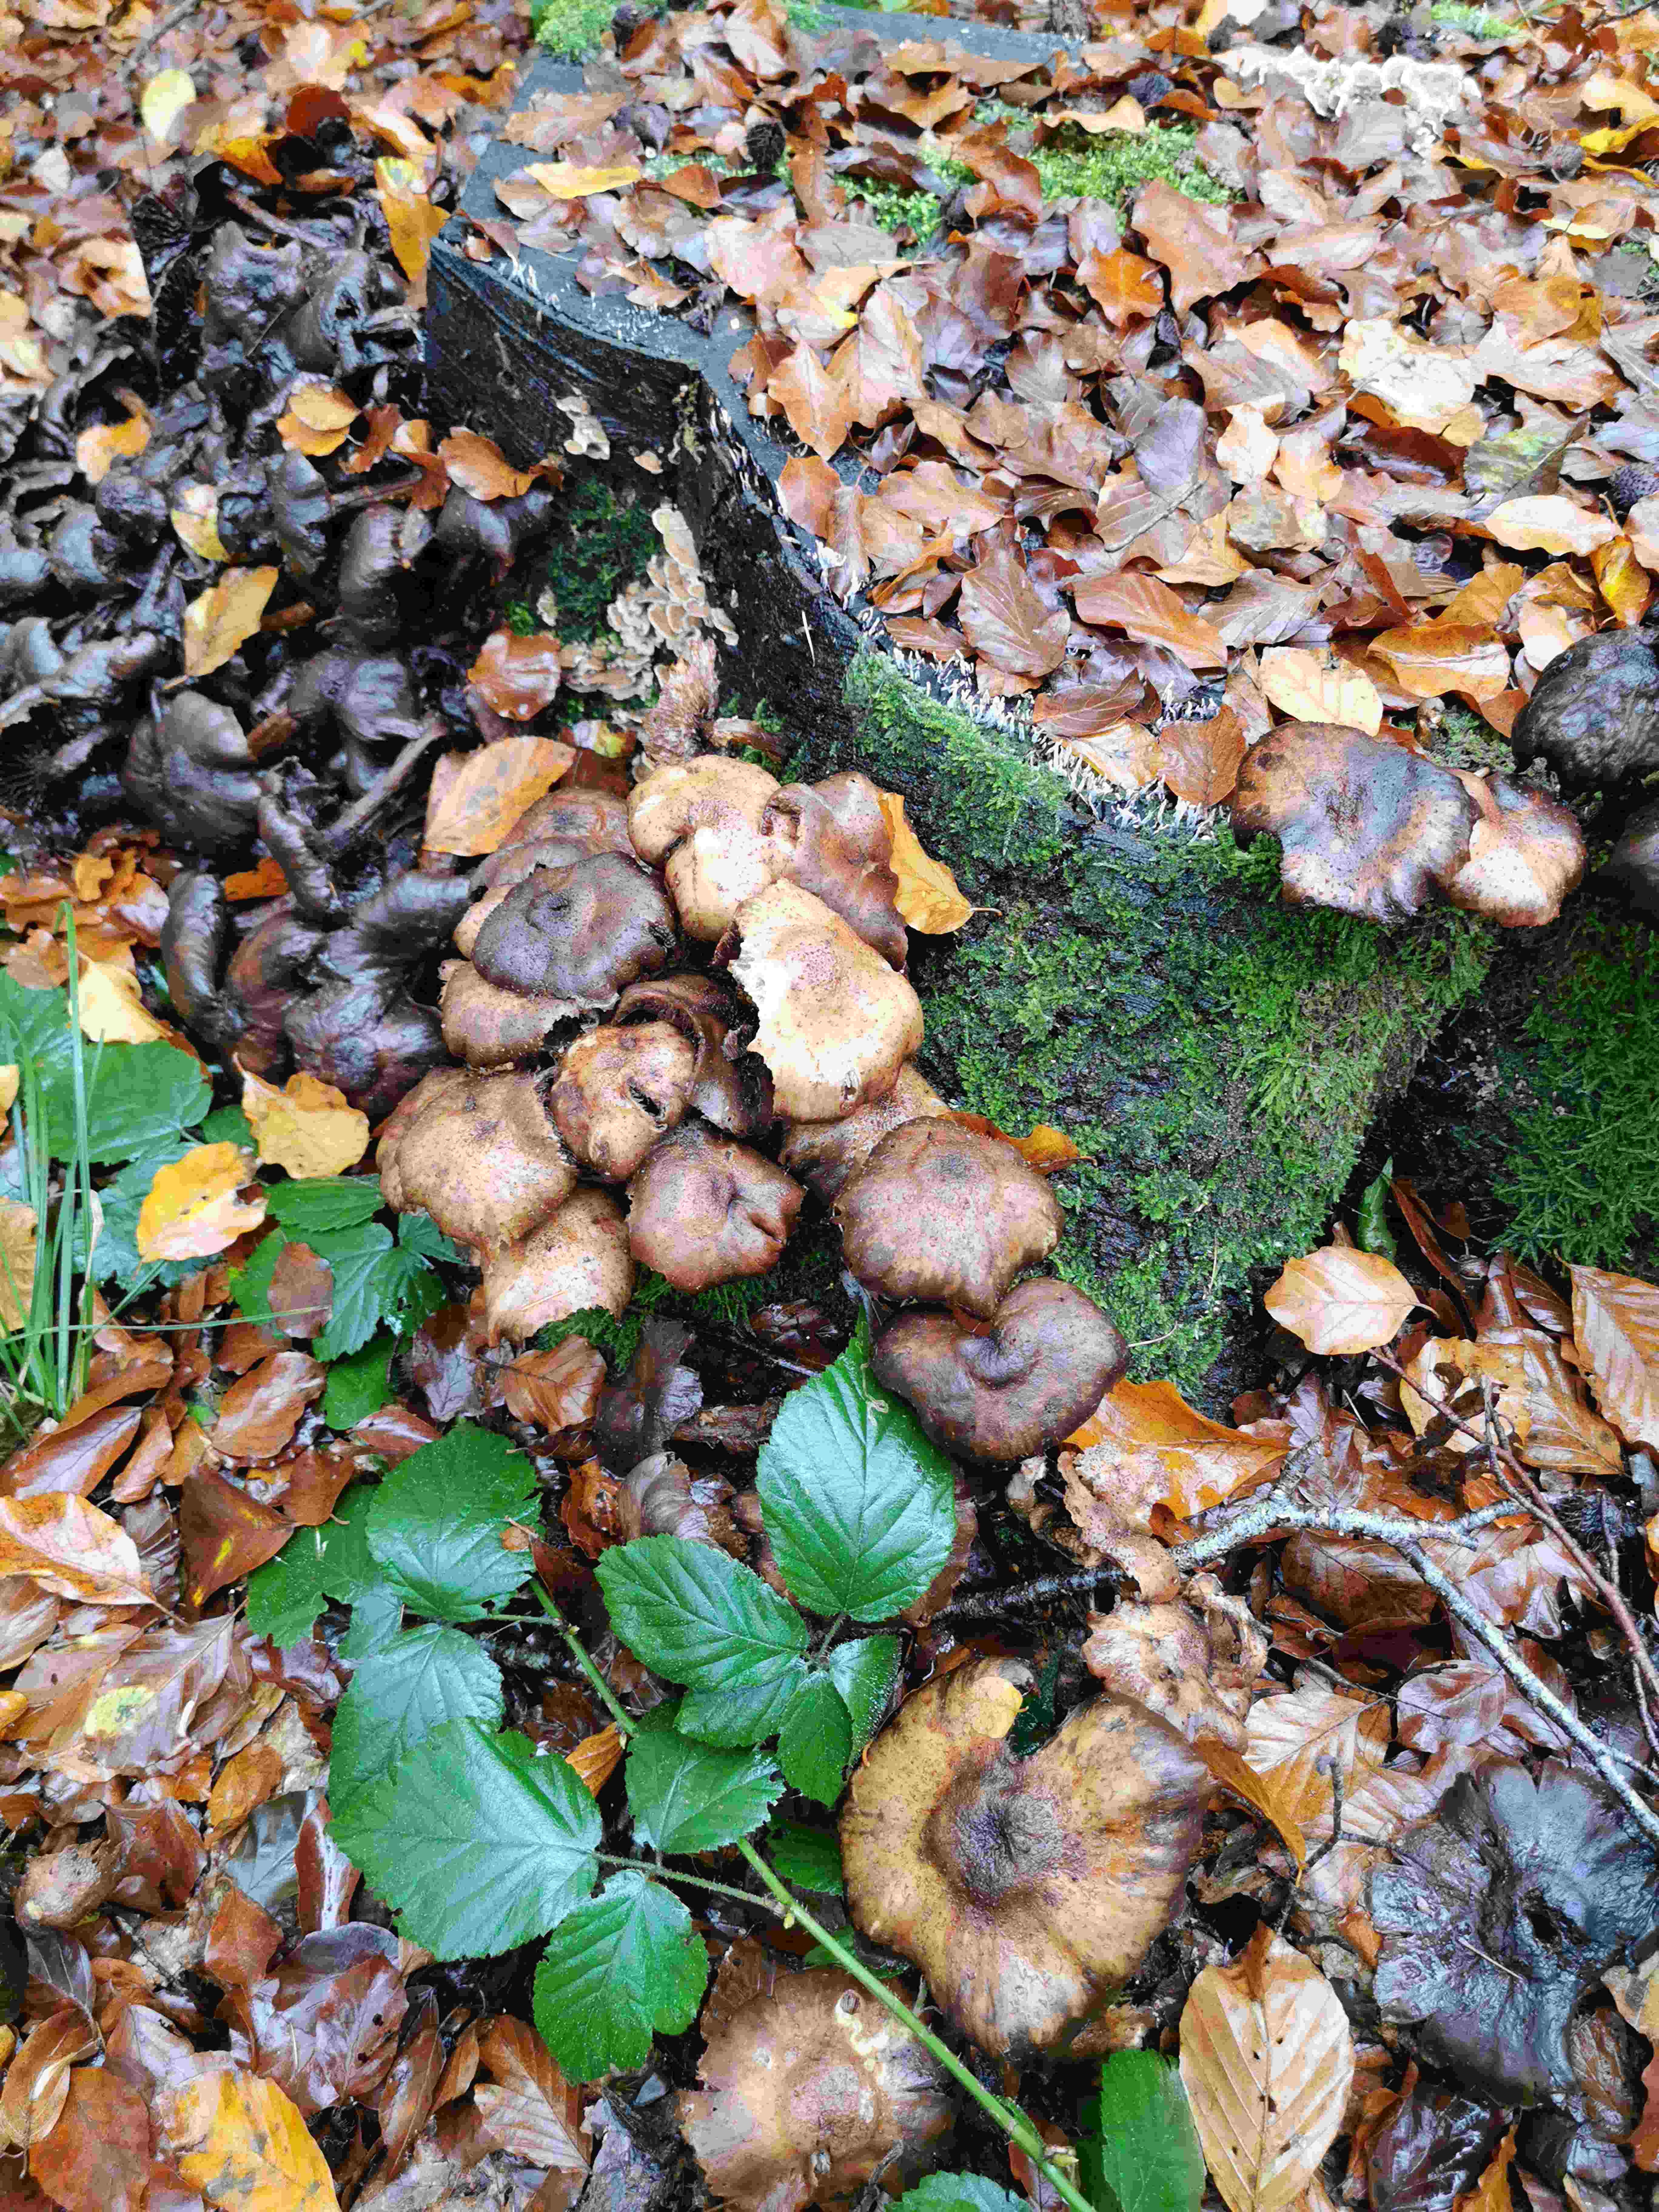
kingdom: Fungi
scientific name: Fungi
